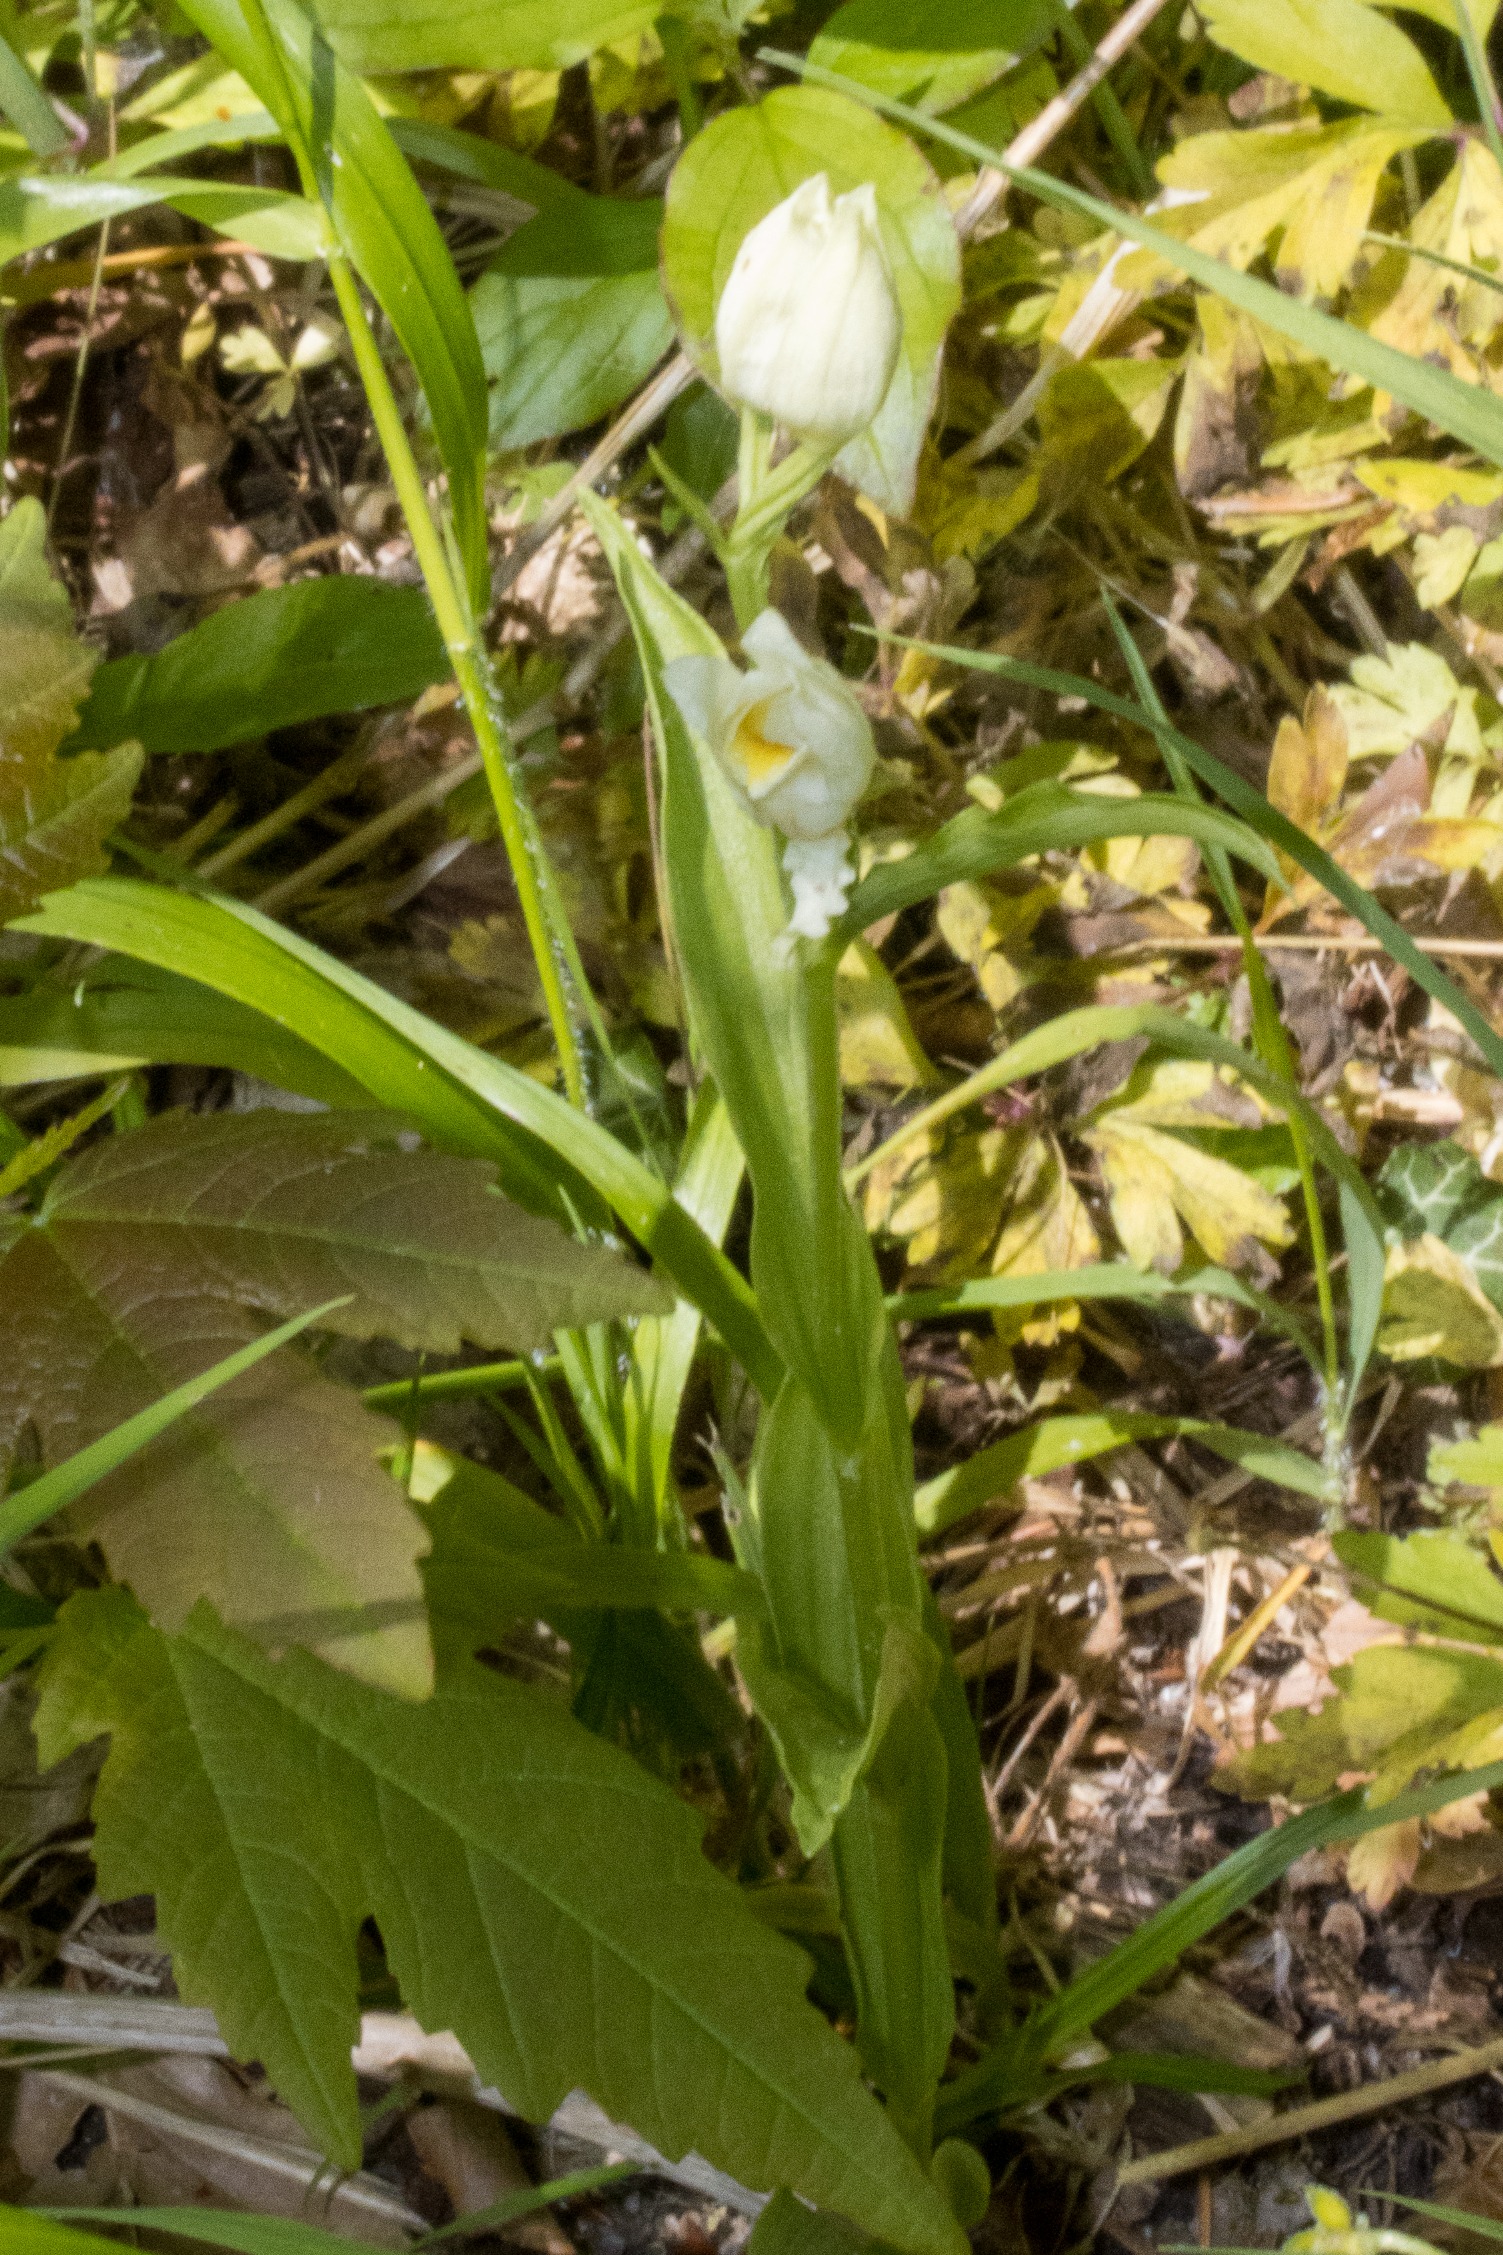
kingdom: Plantae
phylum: Tracheophyta
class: Liliopsida
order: Asparagales
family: Orchidaceae
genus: Cephalanthera
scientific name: Cephalanthera damasonium
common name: Hvidgul skovlilje
